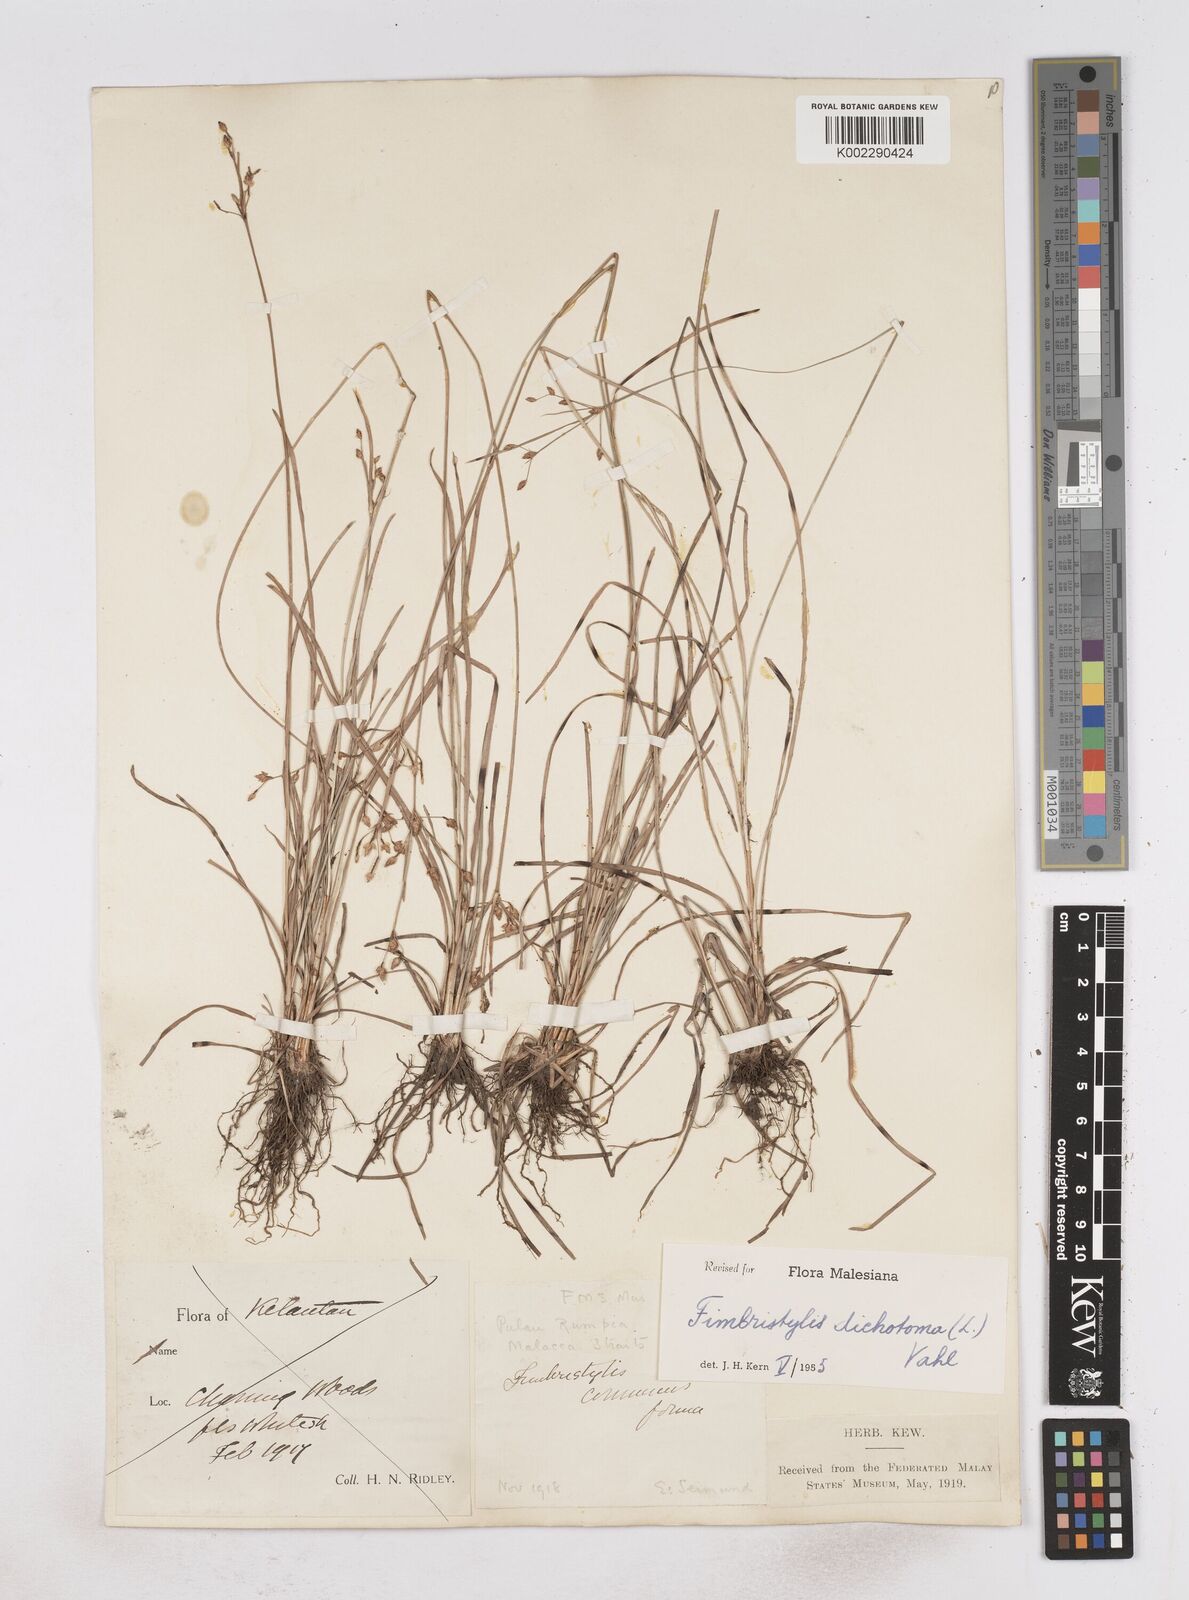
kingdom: Plantae
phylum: Tracheophyta
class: Liliopsida
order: Poales
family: Cyperaceae
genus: Fimbristylis
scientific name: Fimbristylis dichotoma
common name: Forked fimbry
